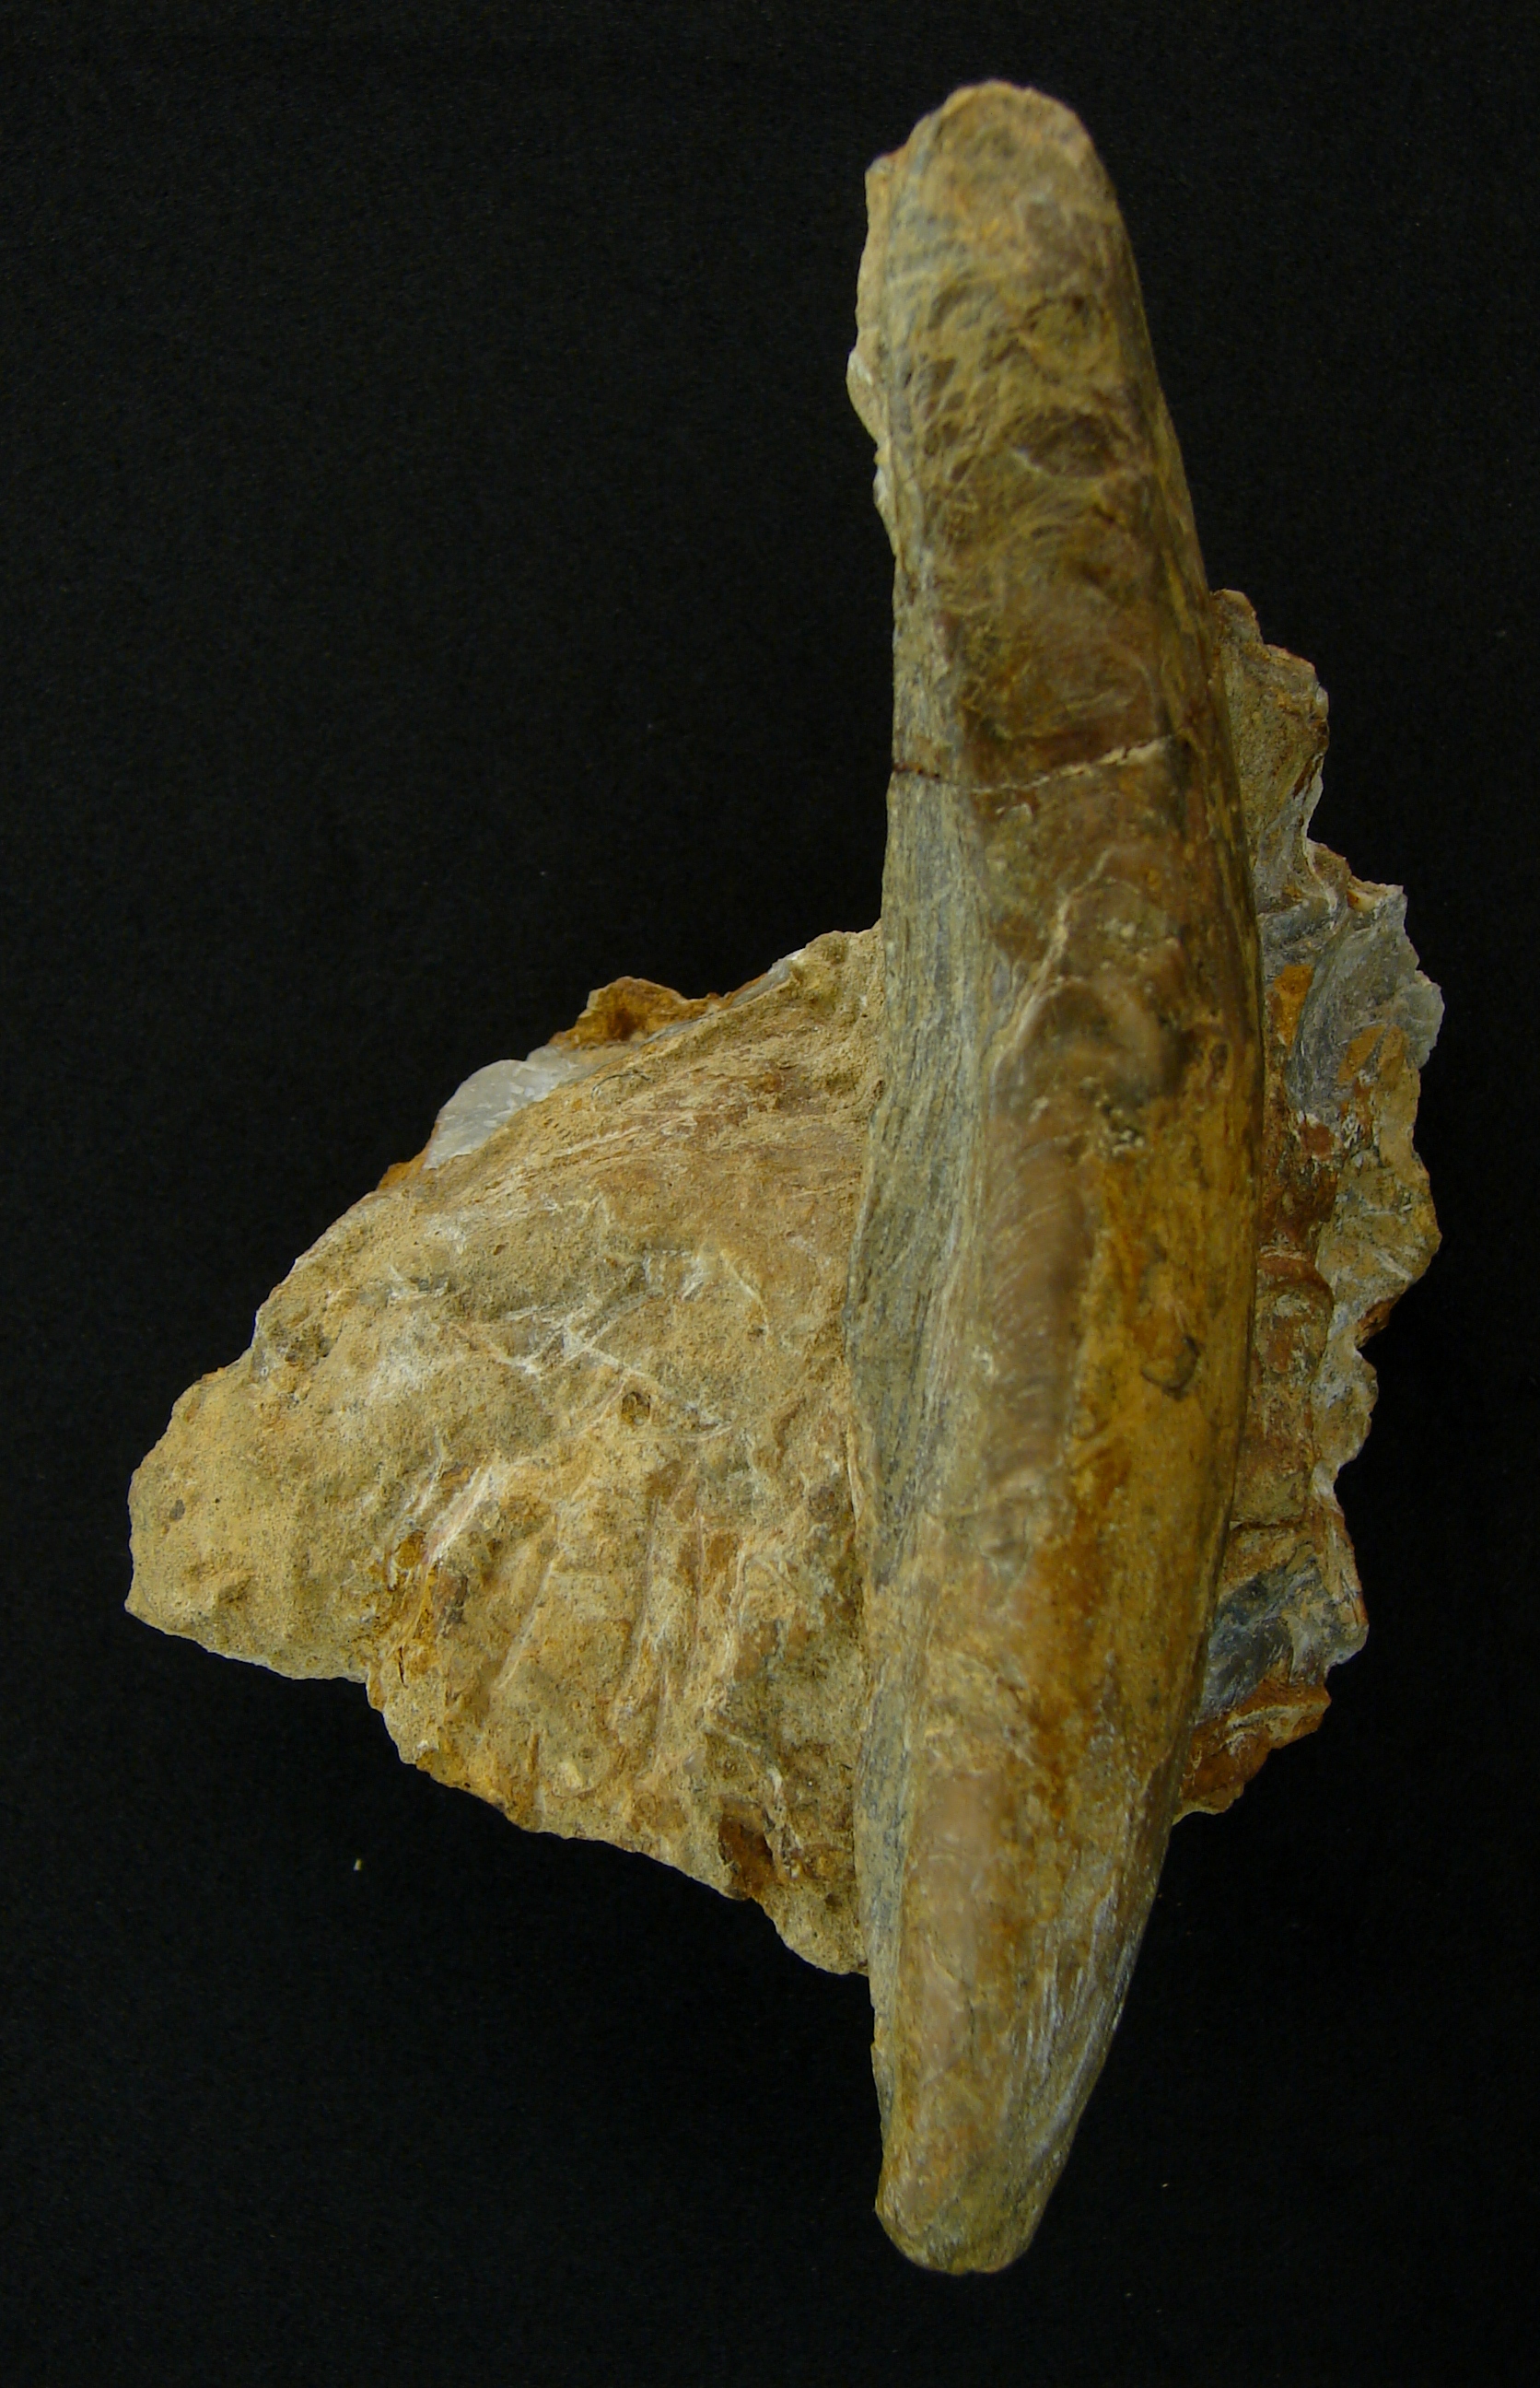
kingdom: Animalia
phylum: Mollusca
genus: Pharomytilus
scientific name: Pharomytilus
